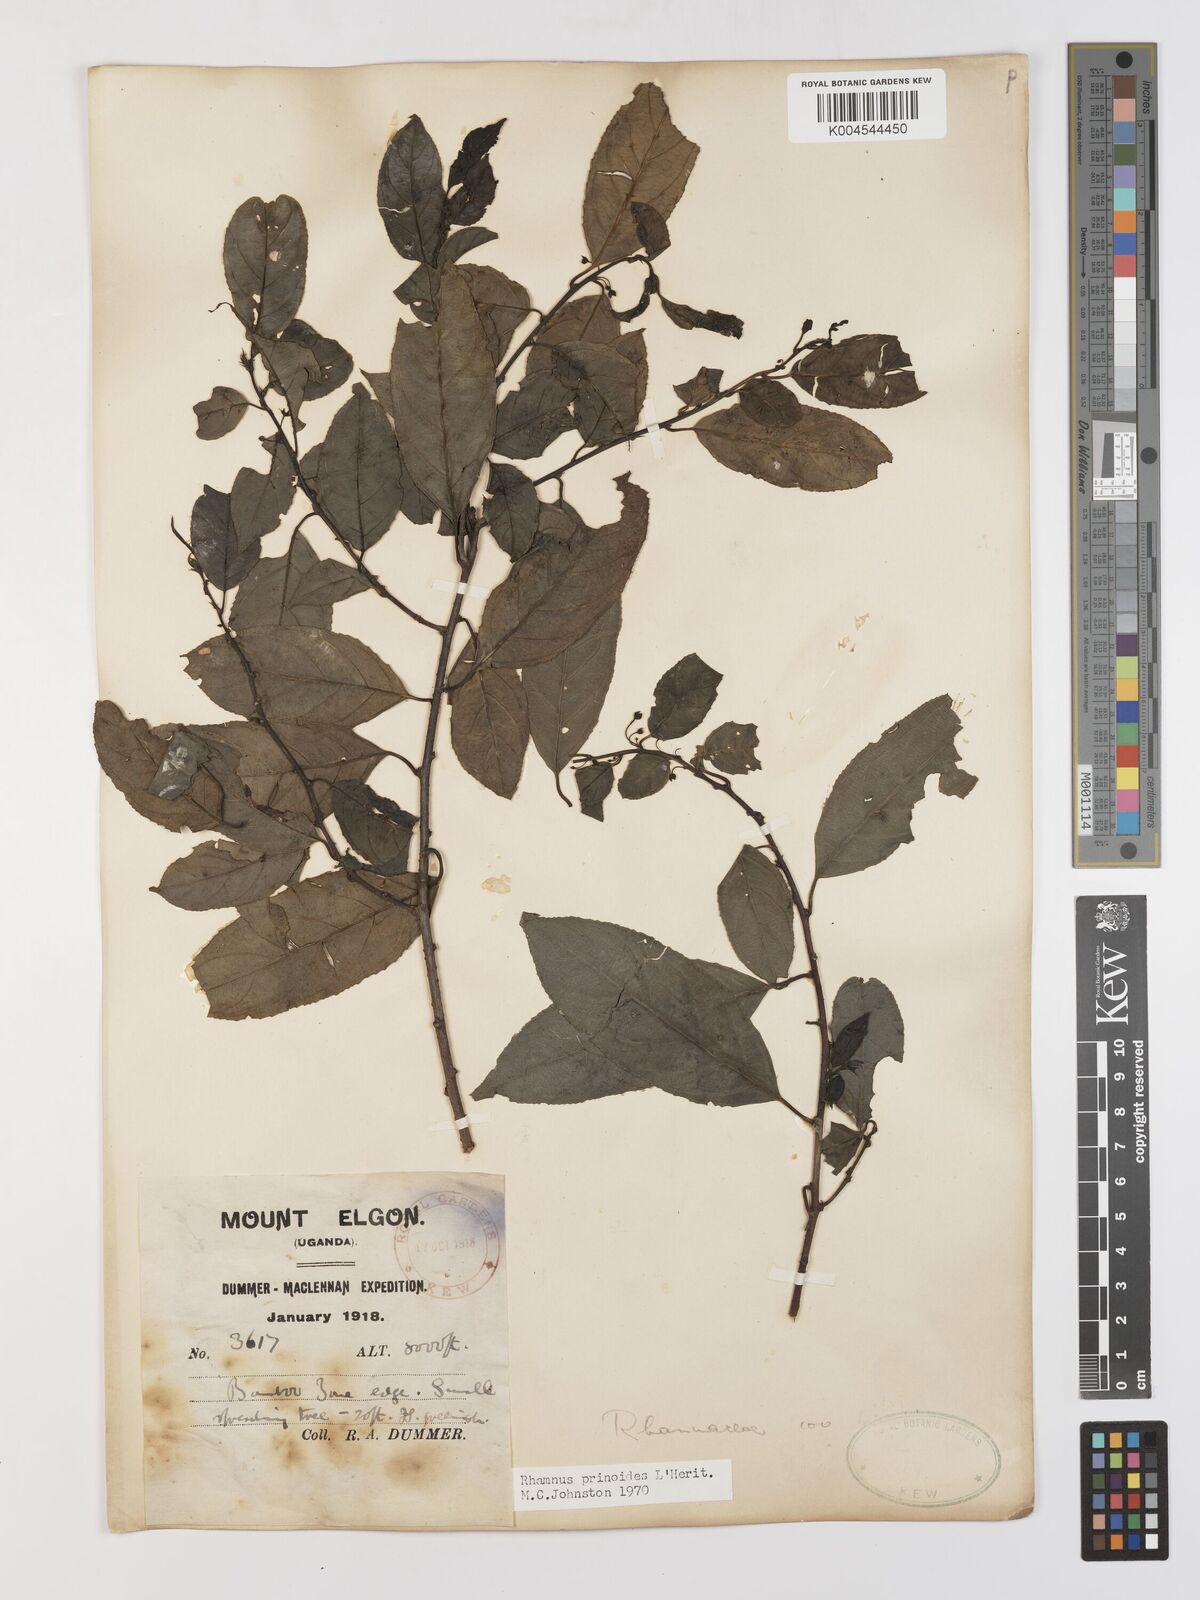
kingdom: Plantae
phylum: Tracheophyta
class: Magnoliopsida
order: Rosales
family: Rhamnaceae
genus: Rhamnus
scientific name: Rhamnus prinoides
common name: Dogwood
